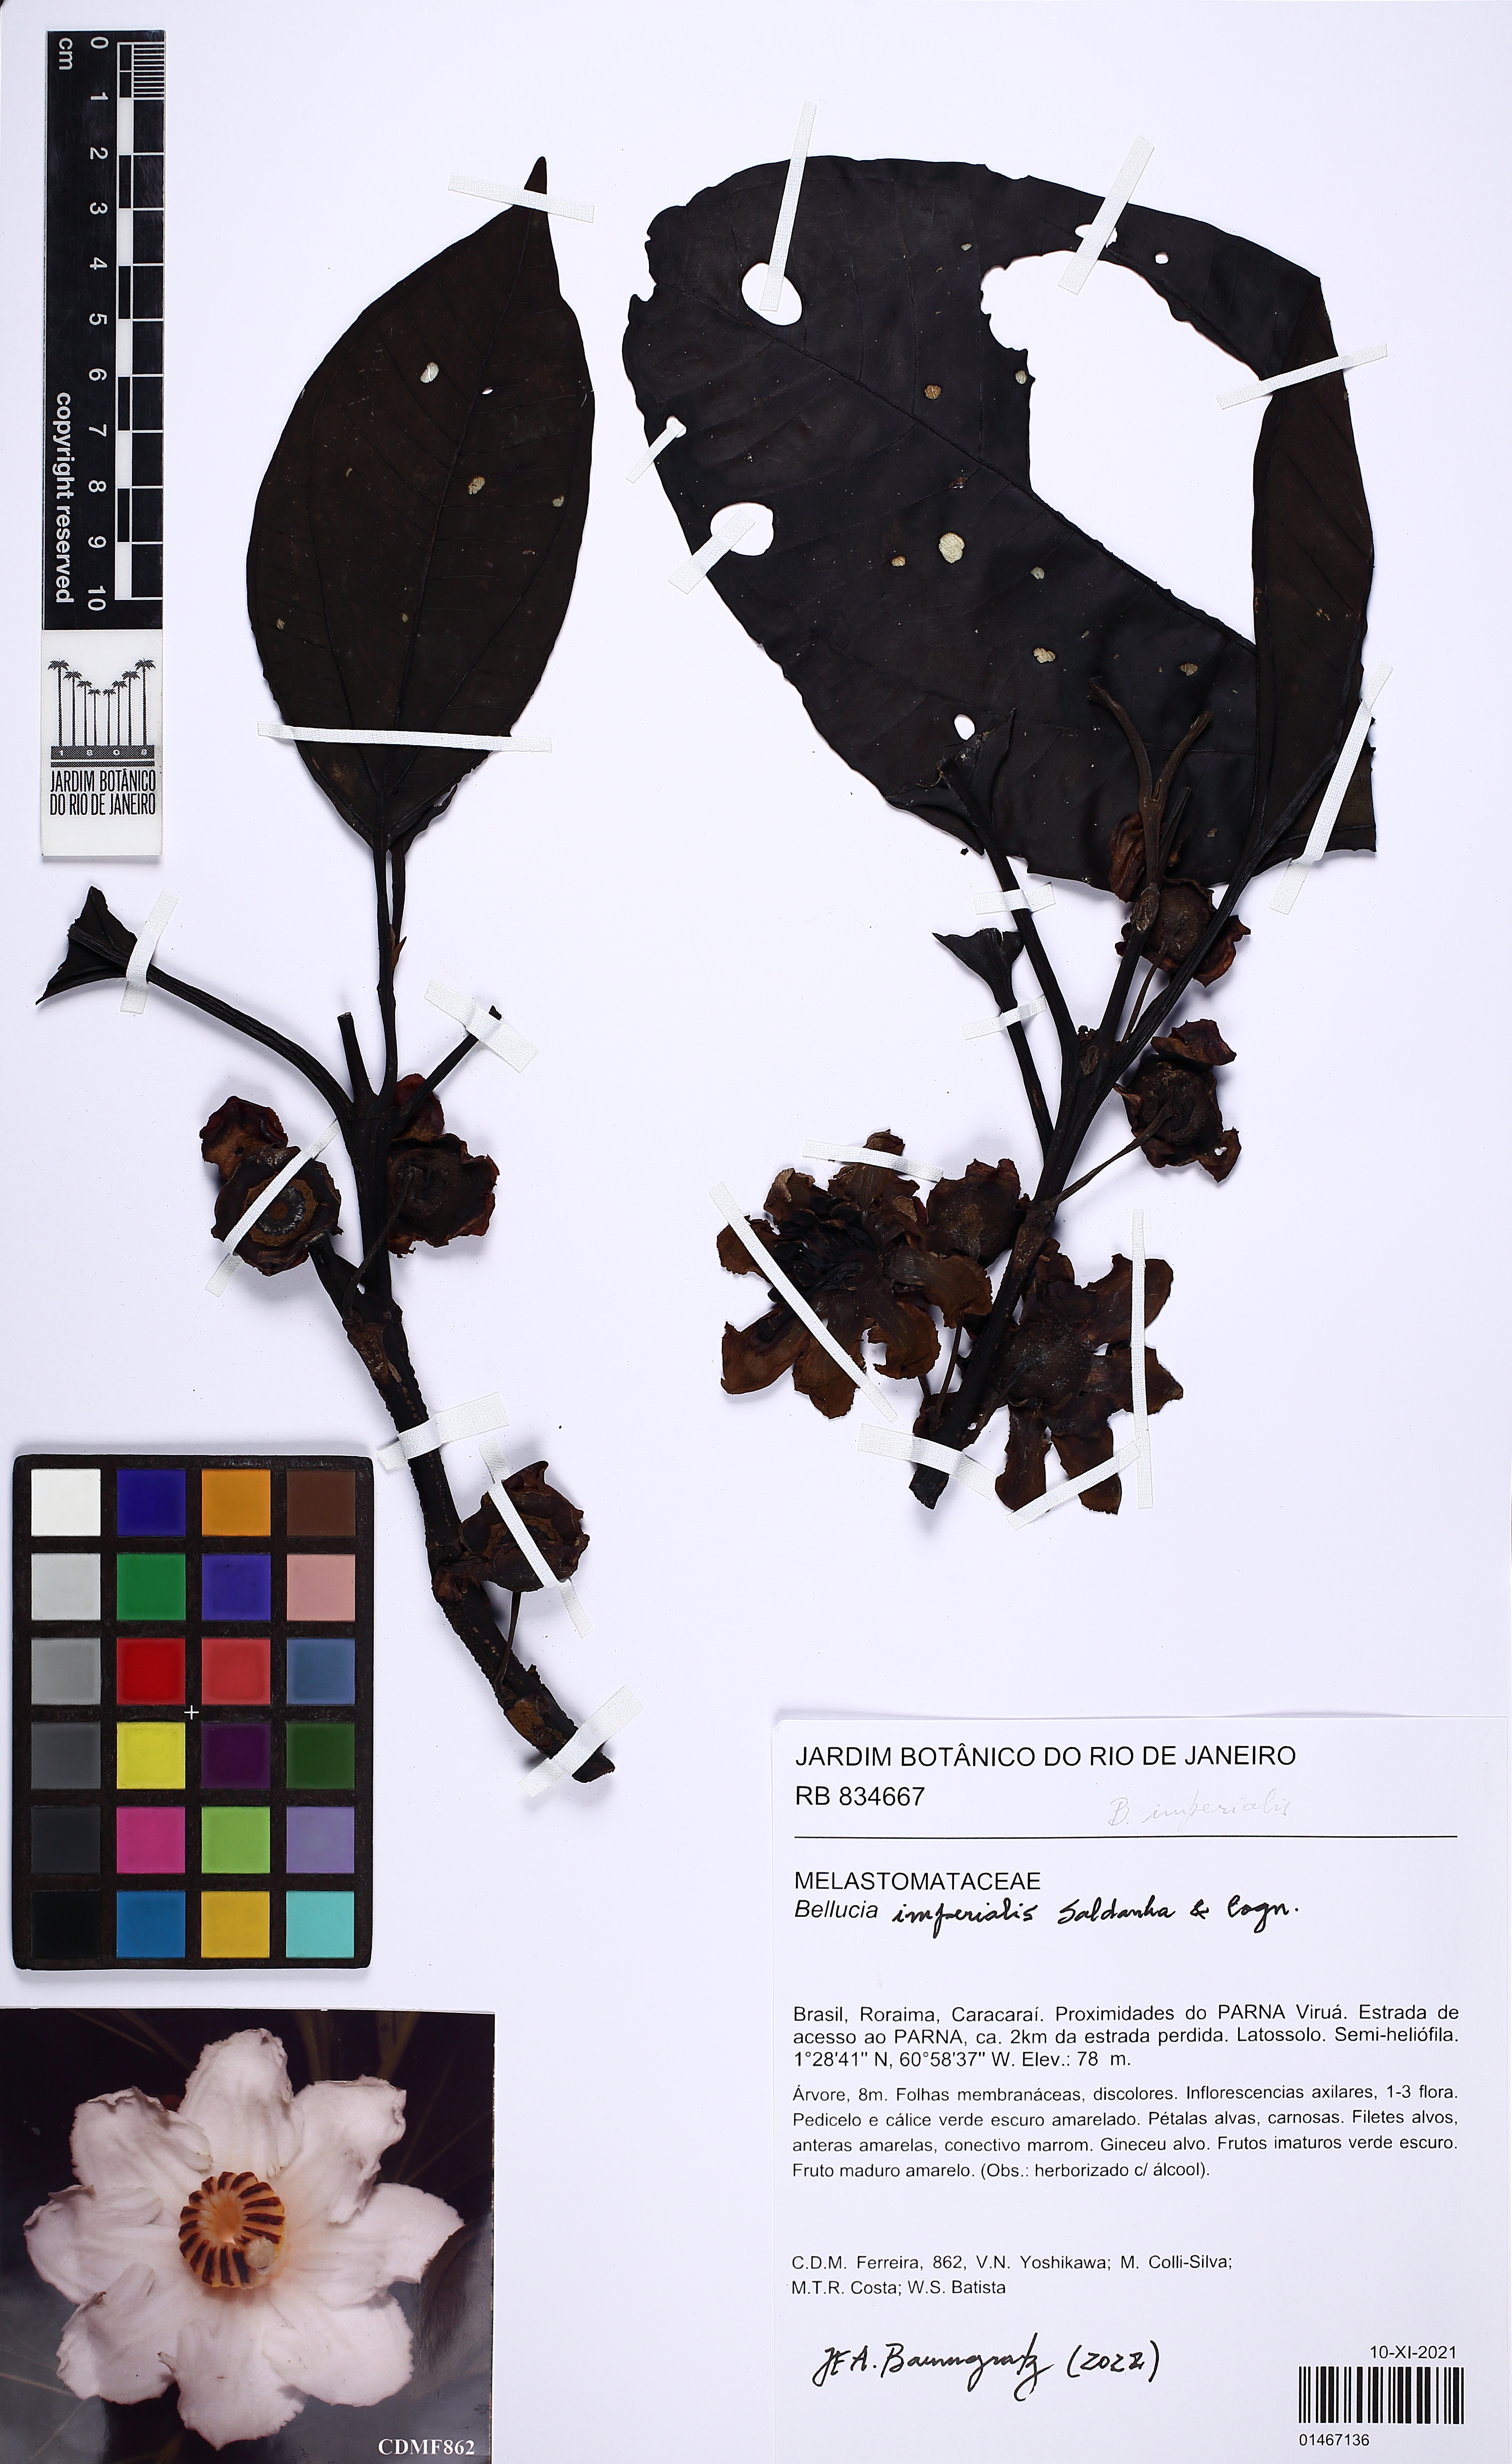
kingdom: Plantae
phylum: Tracheophyta
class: Magnoliopsida
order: Myrtales
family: Melastomataceae
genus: Bellucia
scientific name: Bellucia imperialis
